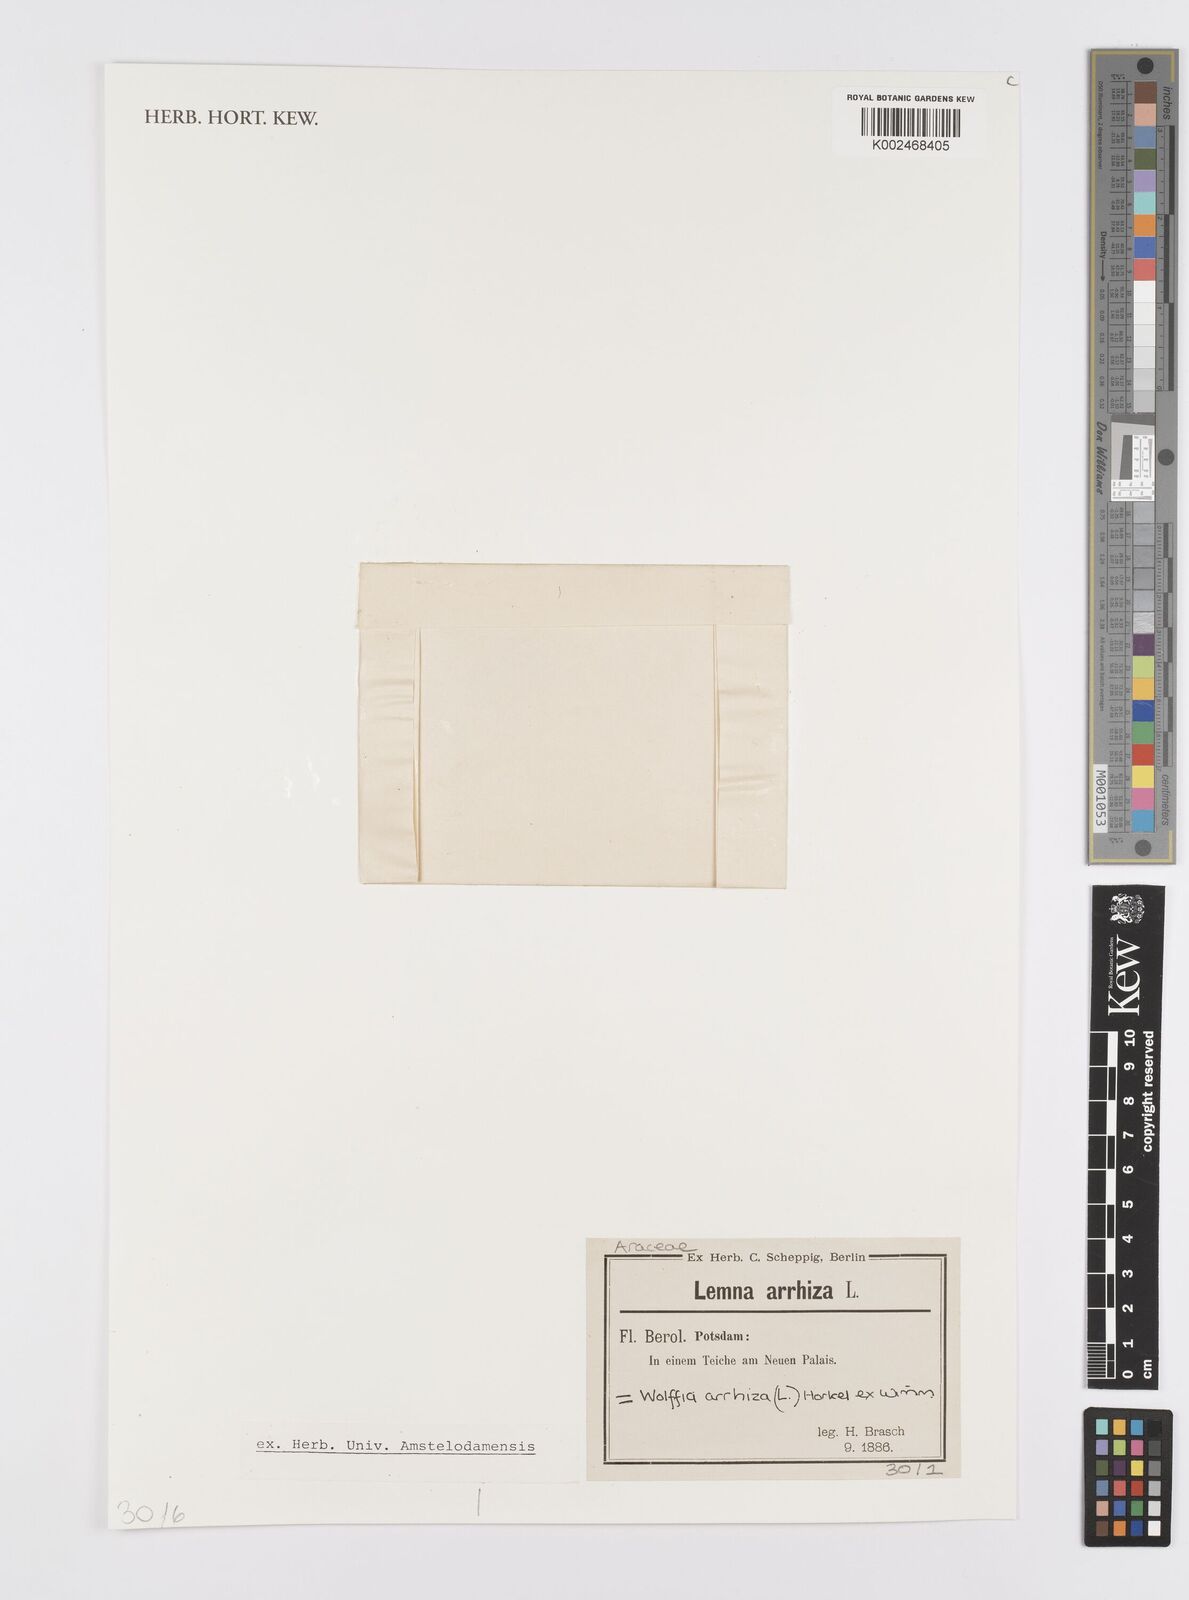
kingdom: Plantae
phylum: Tracheophyta
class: Liliopsida
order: Alismatales
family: Araceae
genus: Wolffia
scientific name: Wolffia arrhiza
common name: Rootless duckweed
